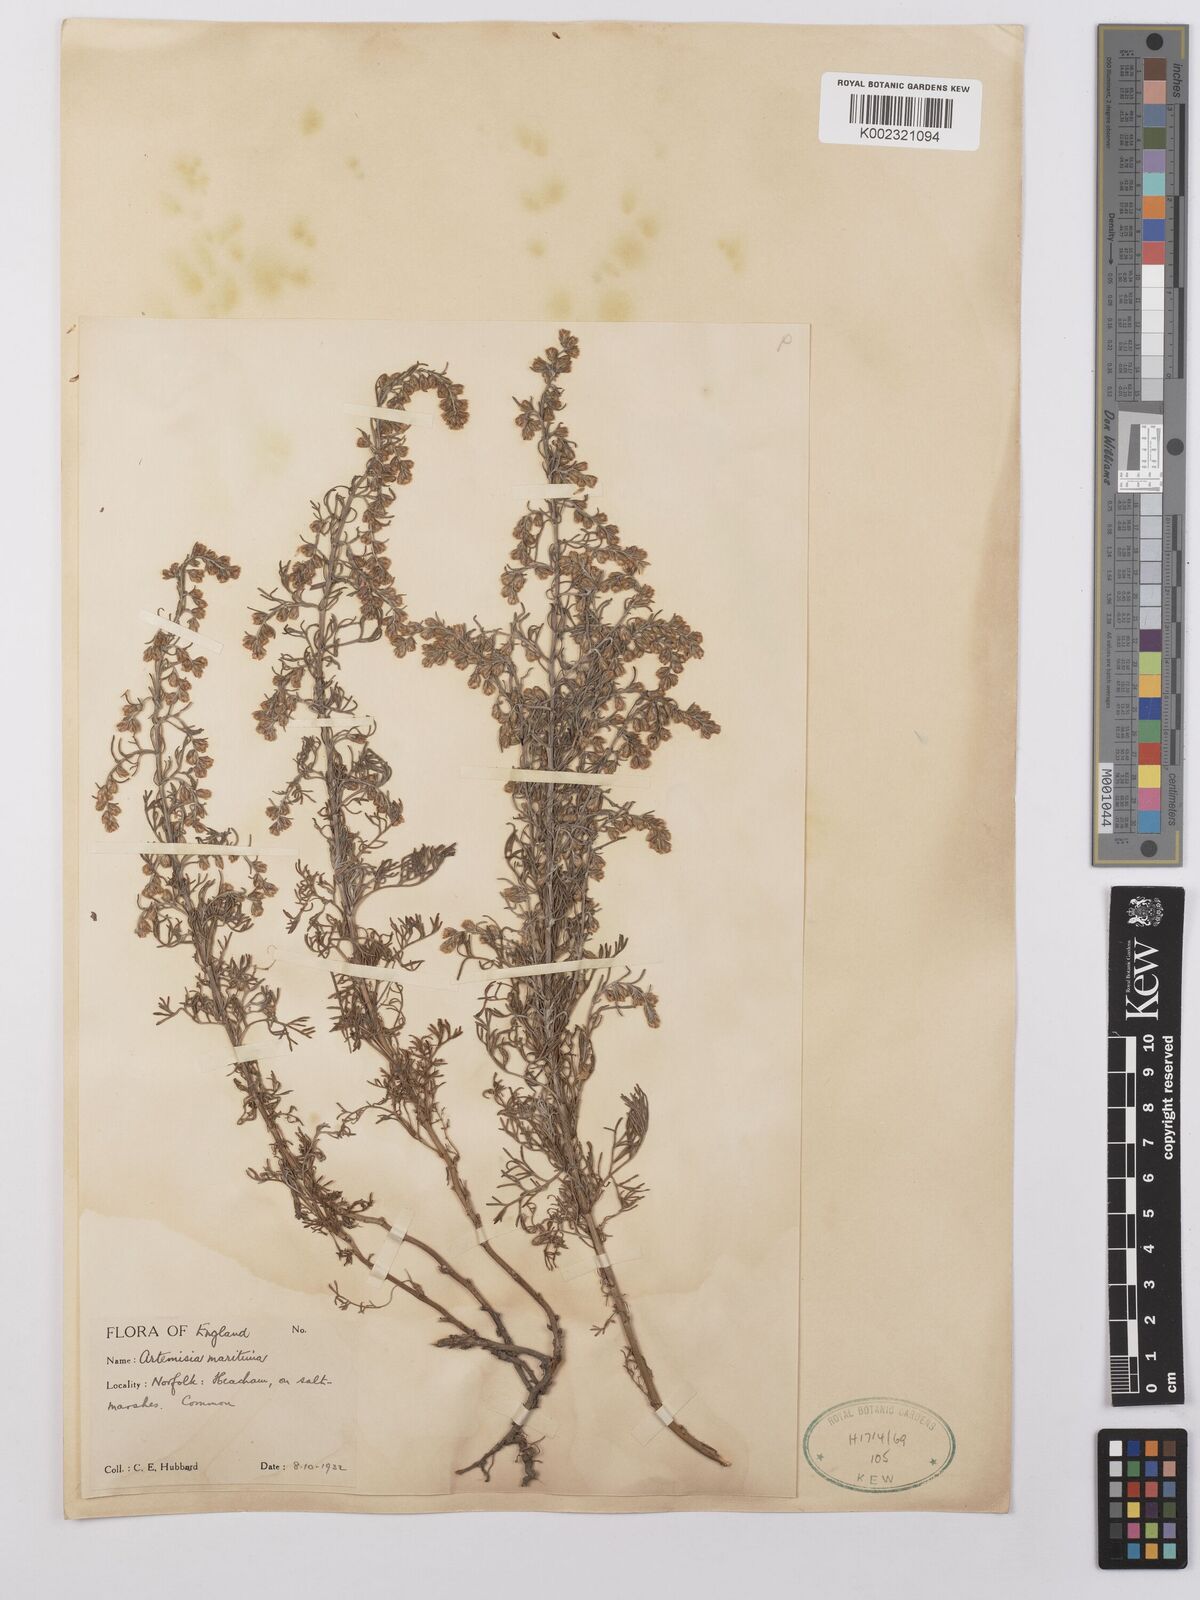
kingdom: Plantae
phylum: Tracheophyta
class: Magnoliopsida
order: Asterales
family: Asteraceae
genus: Artemisia
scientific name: Artemisia maritima
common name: Wormseed
